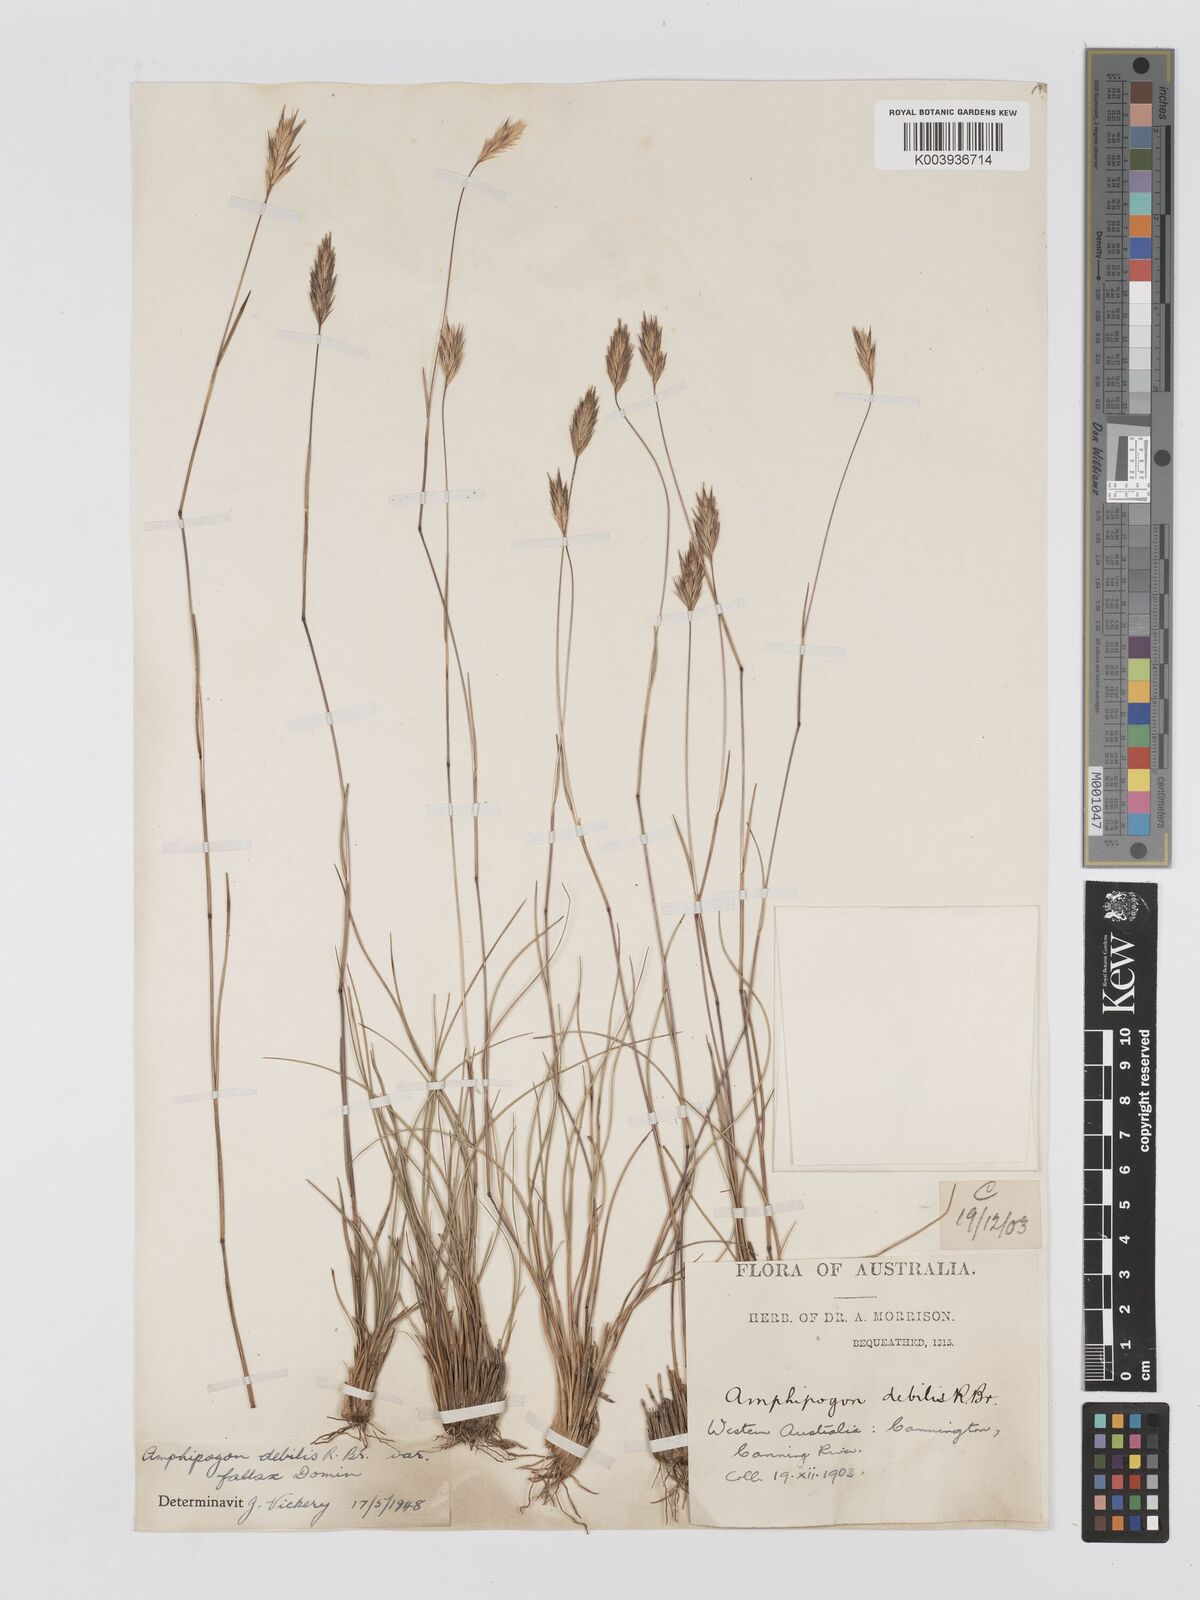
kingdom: Plantae
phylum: Tracheophyta
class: Liliopsida
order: Poales
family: Poaceae
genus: Amphipogon
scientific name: Amphipogon debilis
